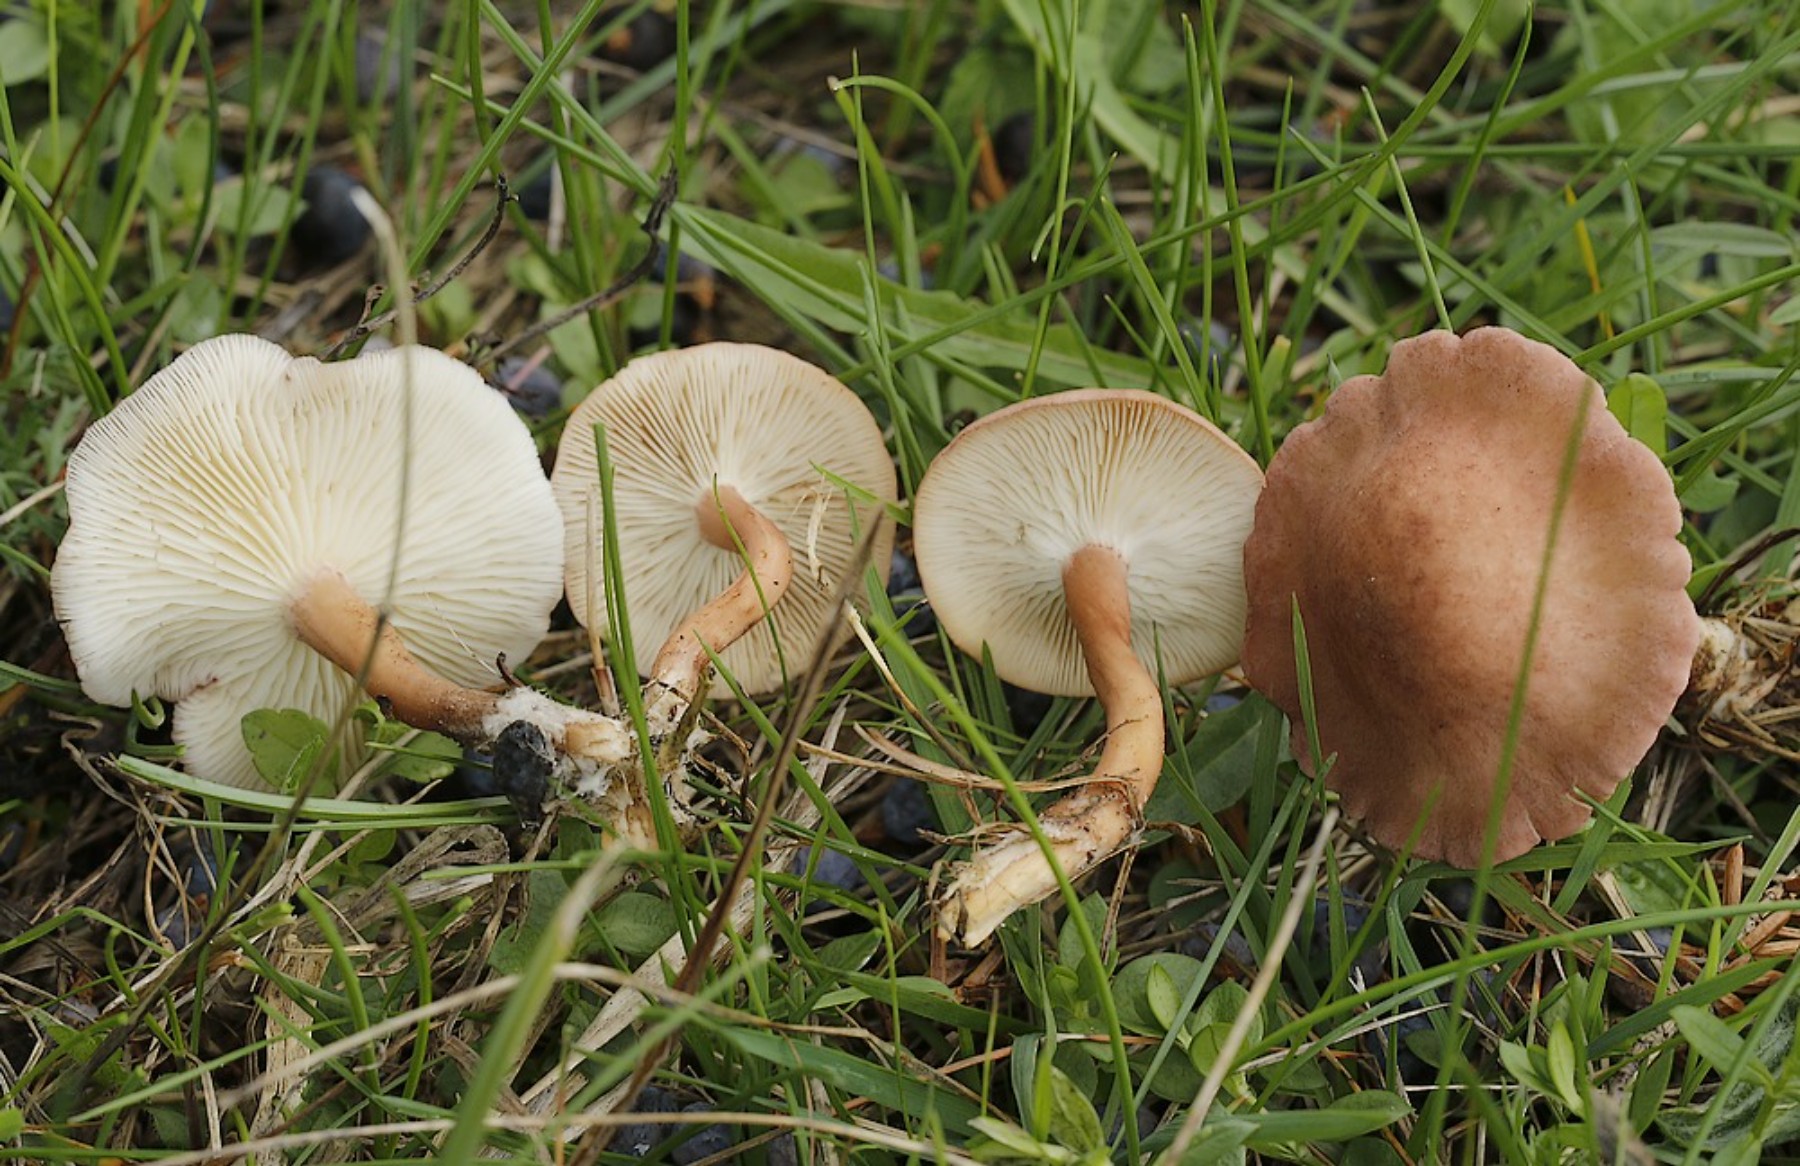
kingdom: Fungi
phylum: Basidiomycota
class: Agaricomycetes
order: Agaricales
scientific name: Agaricales
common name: champignonordenen
